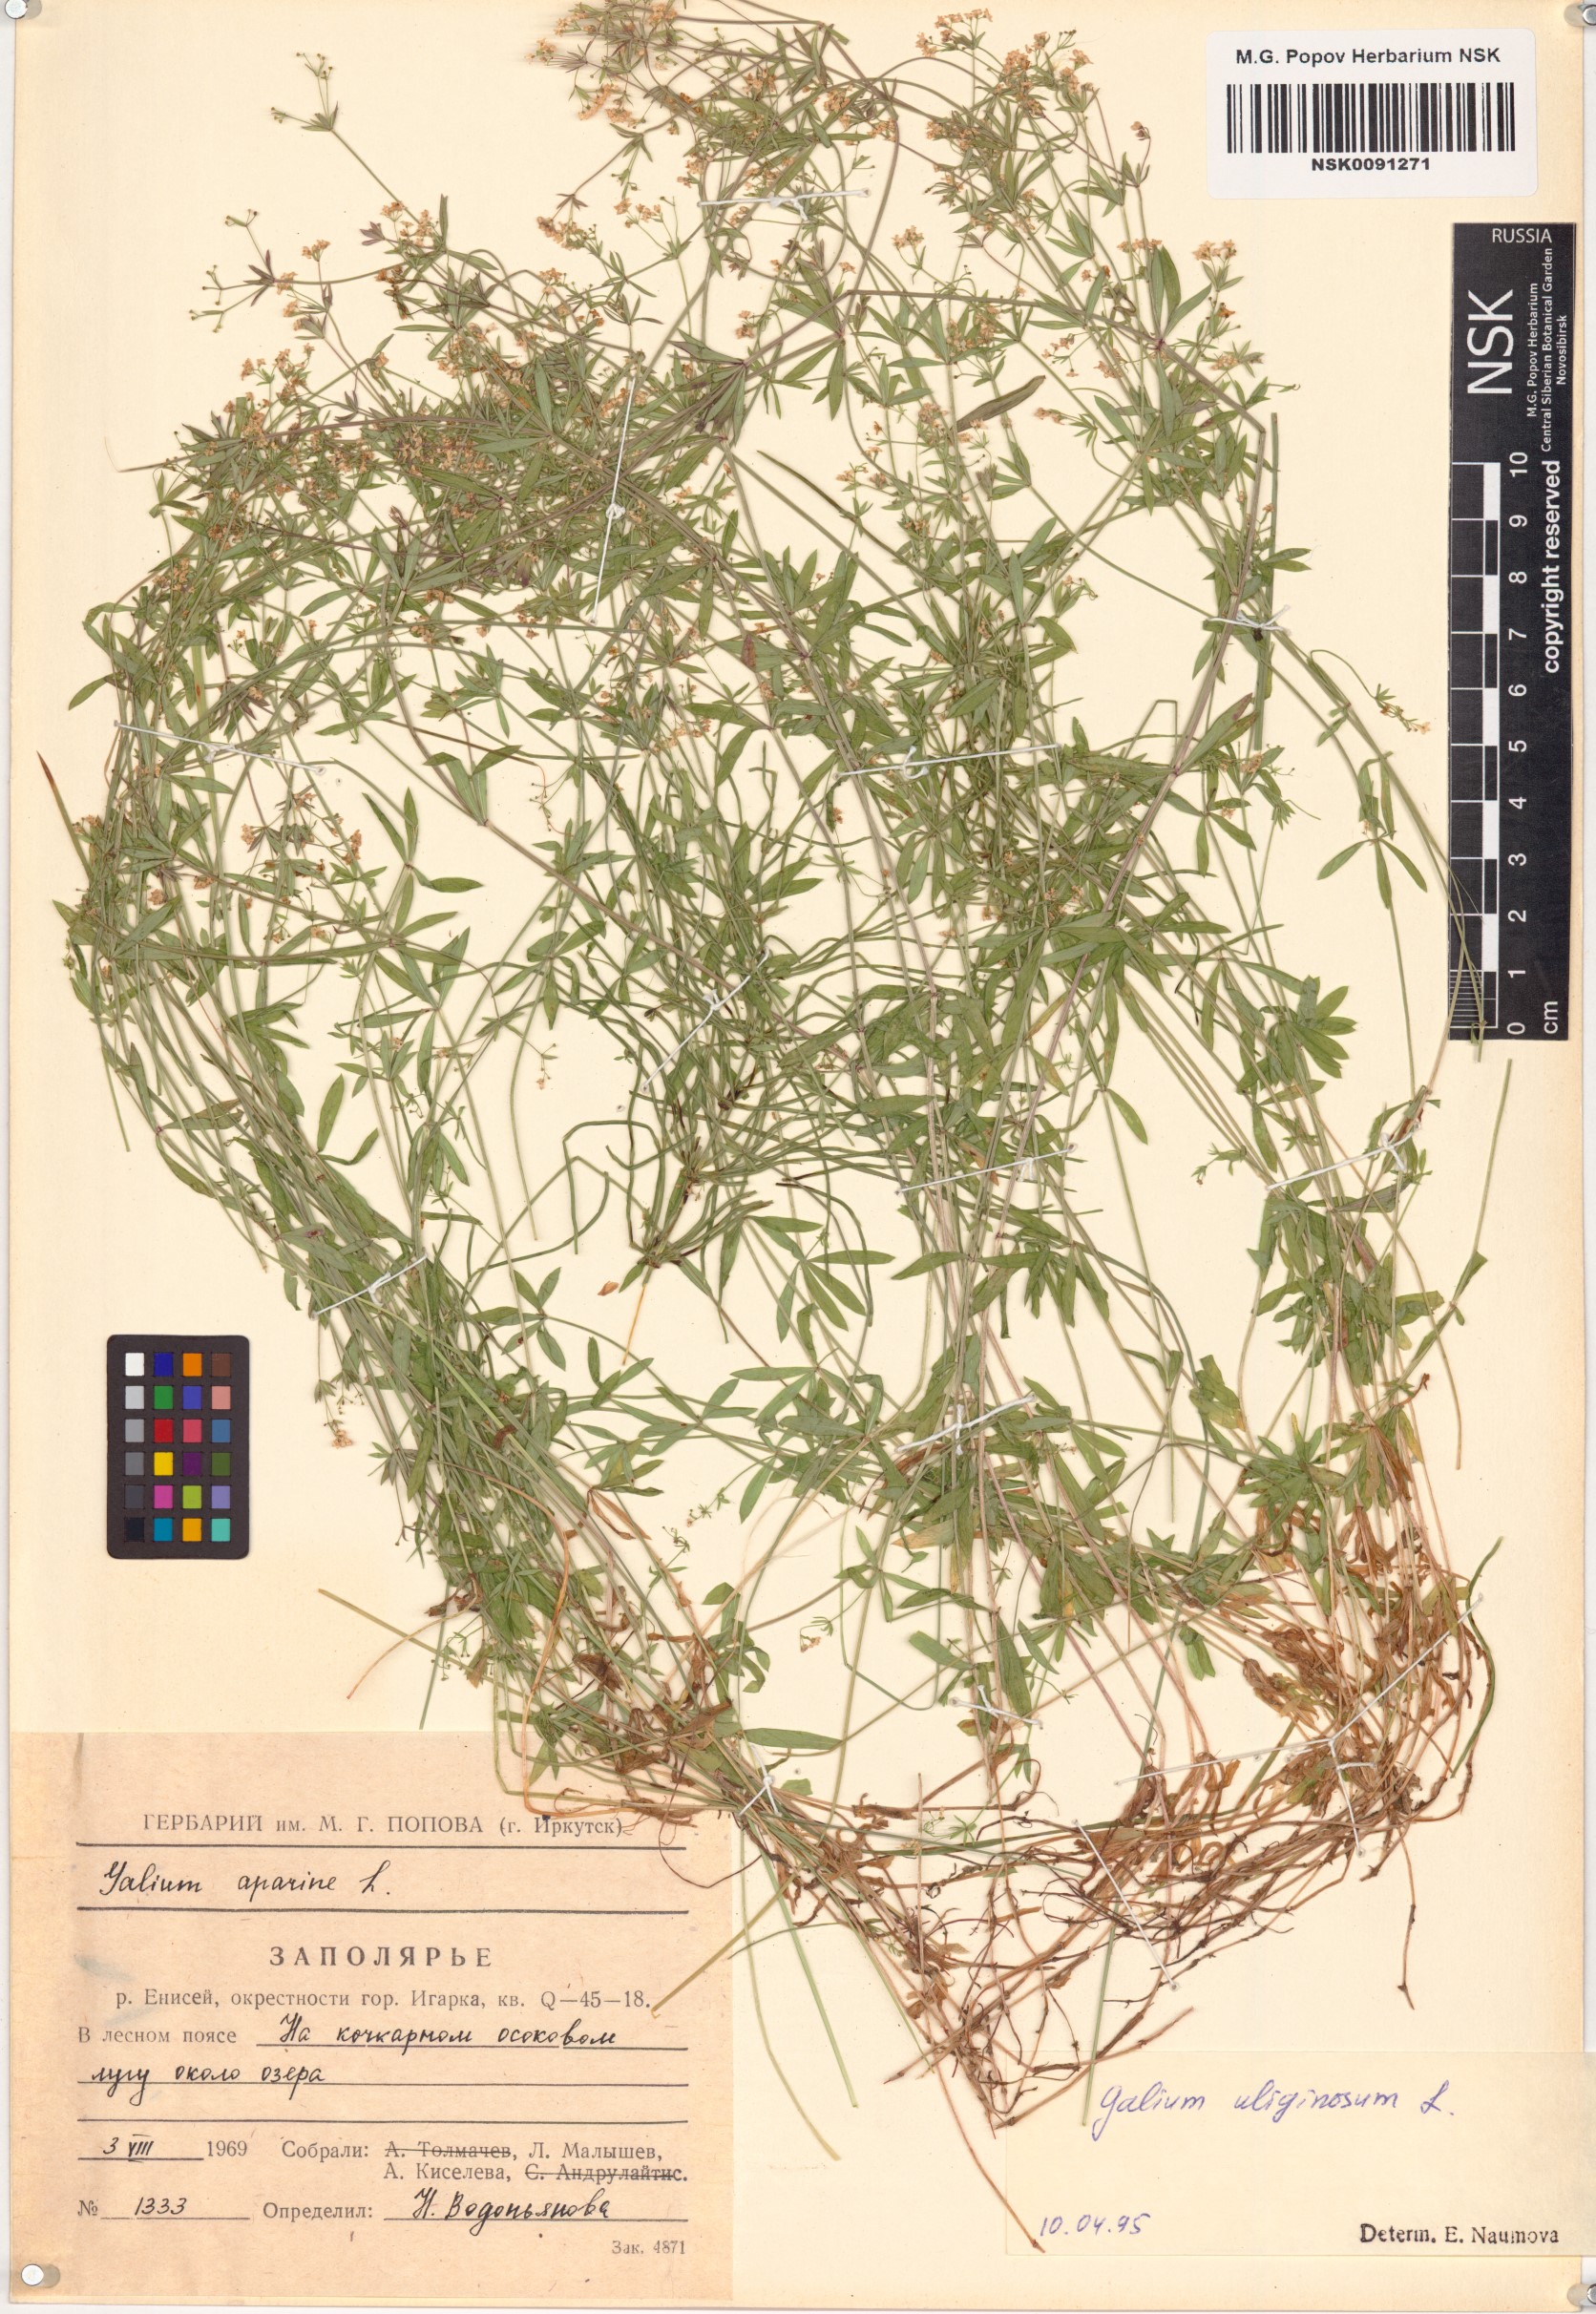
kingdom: Plantae
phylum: Tracheophyta
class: Magnoliopsida
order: Gentianales
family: Rubiaceae
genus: Galium
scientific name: Galium uliginosum
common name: Fen bedstraw
